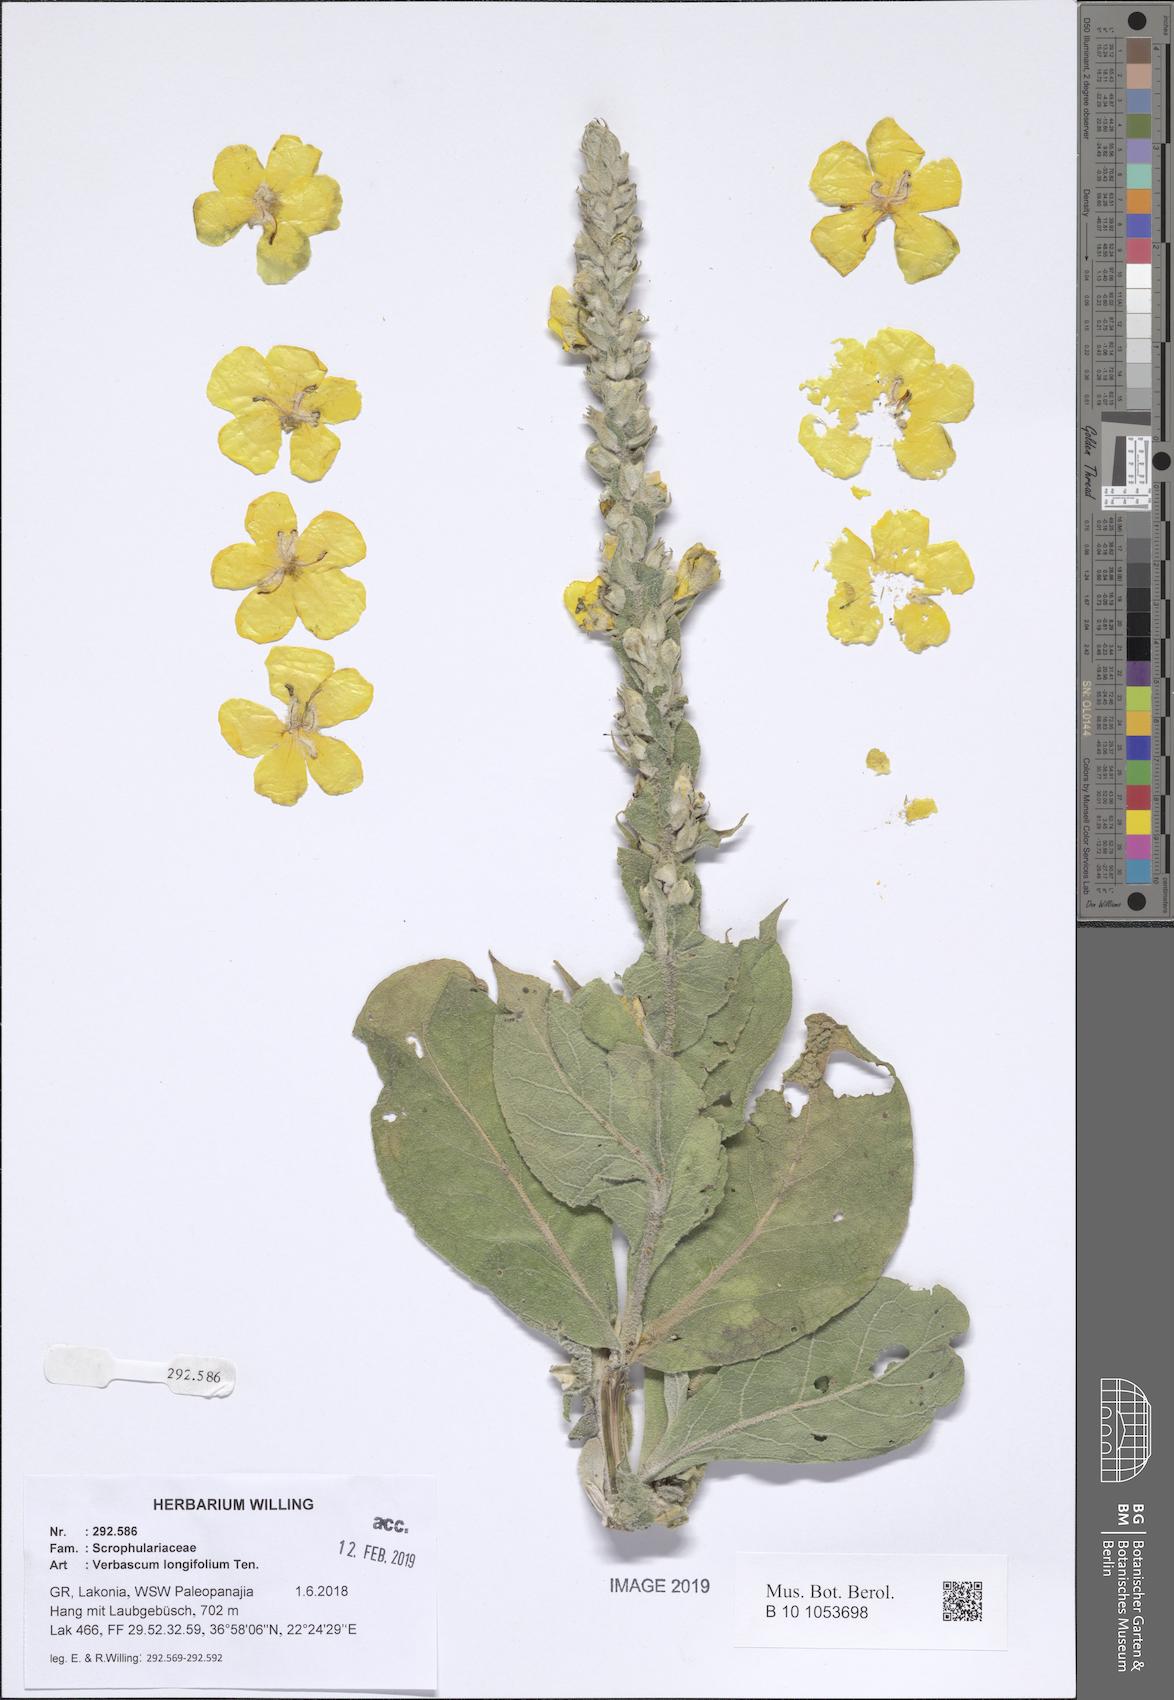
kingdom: Plantae
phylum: Tracheophyta
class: Magnoliopsida
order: Lamiales
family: Scrophulariaceae
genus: Verbascum
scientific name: Verbascum longifolium
